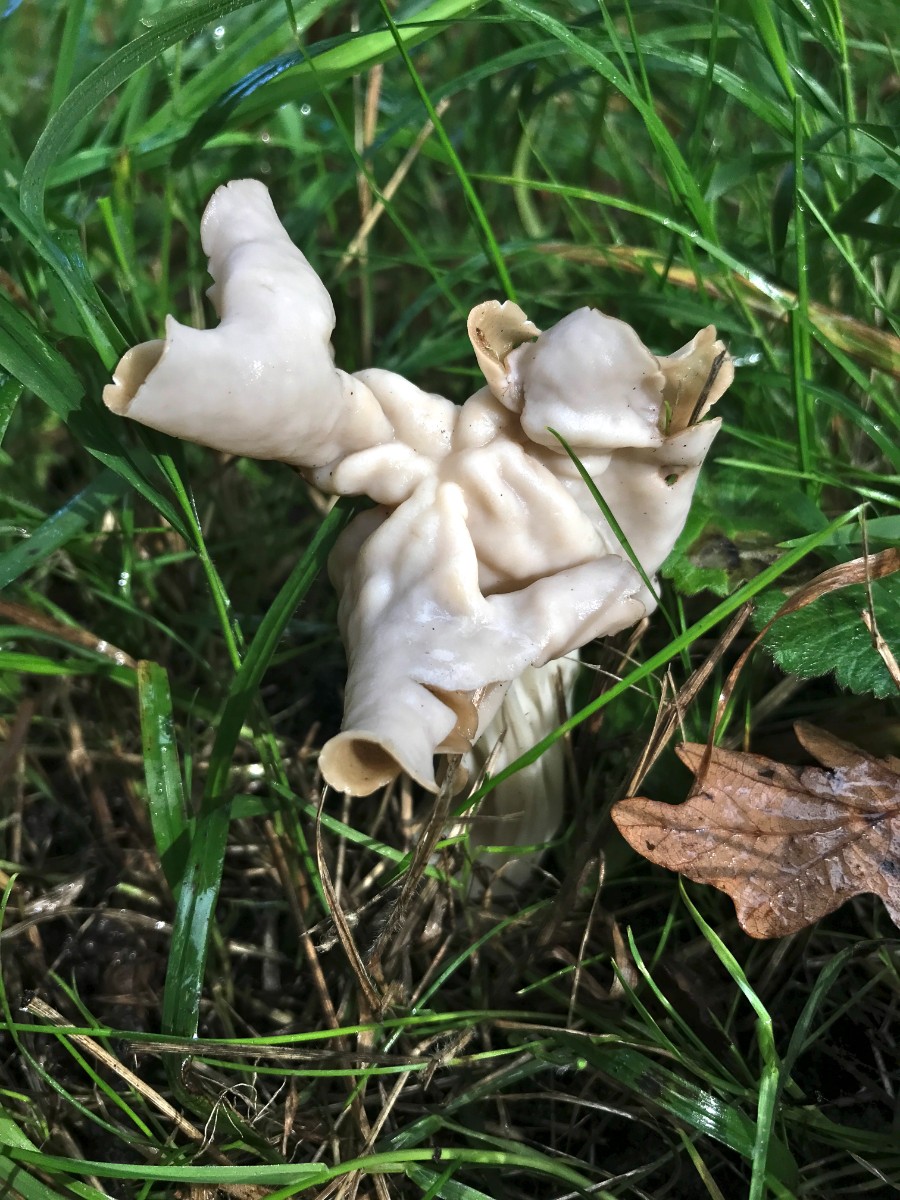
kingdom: Fungi
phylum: Ascomycota
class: Pezizomycetes
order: Pezizales
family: Helvellaceae
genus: Helvella
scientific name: Helvella crispa
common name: kruset foldhat
